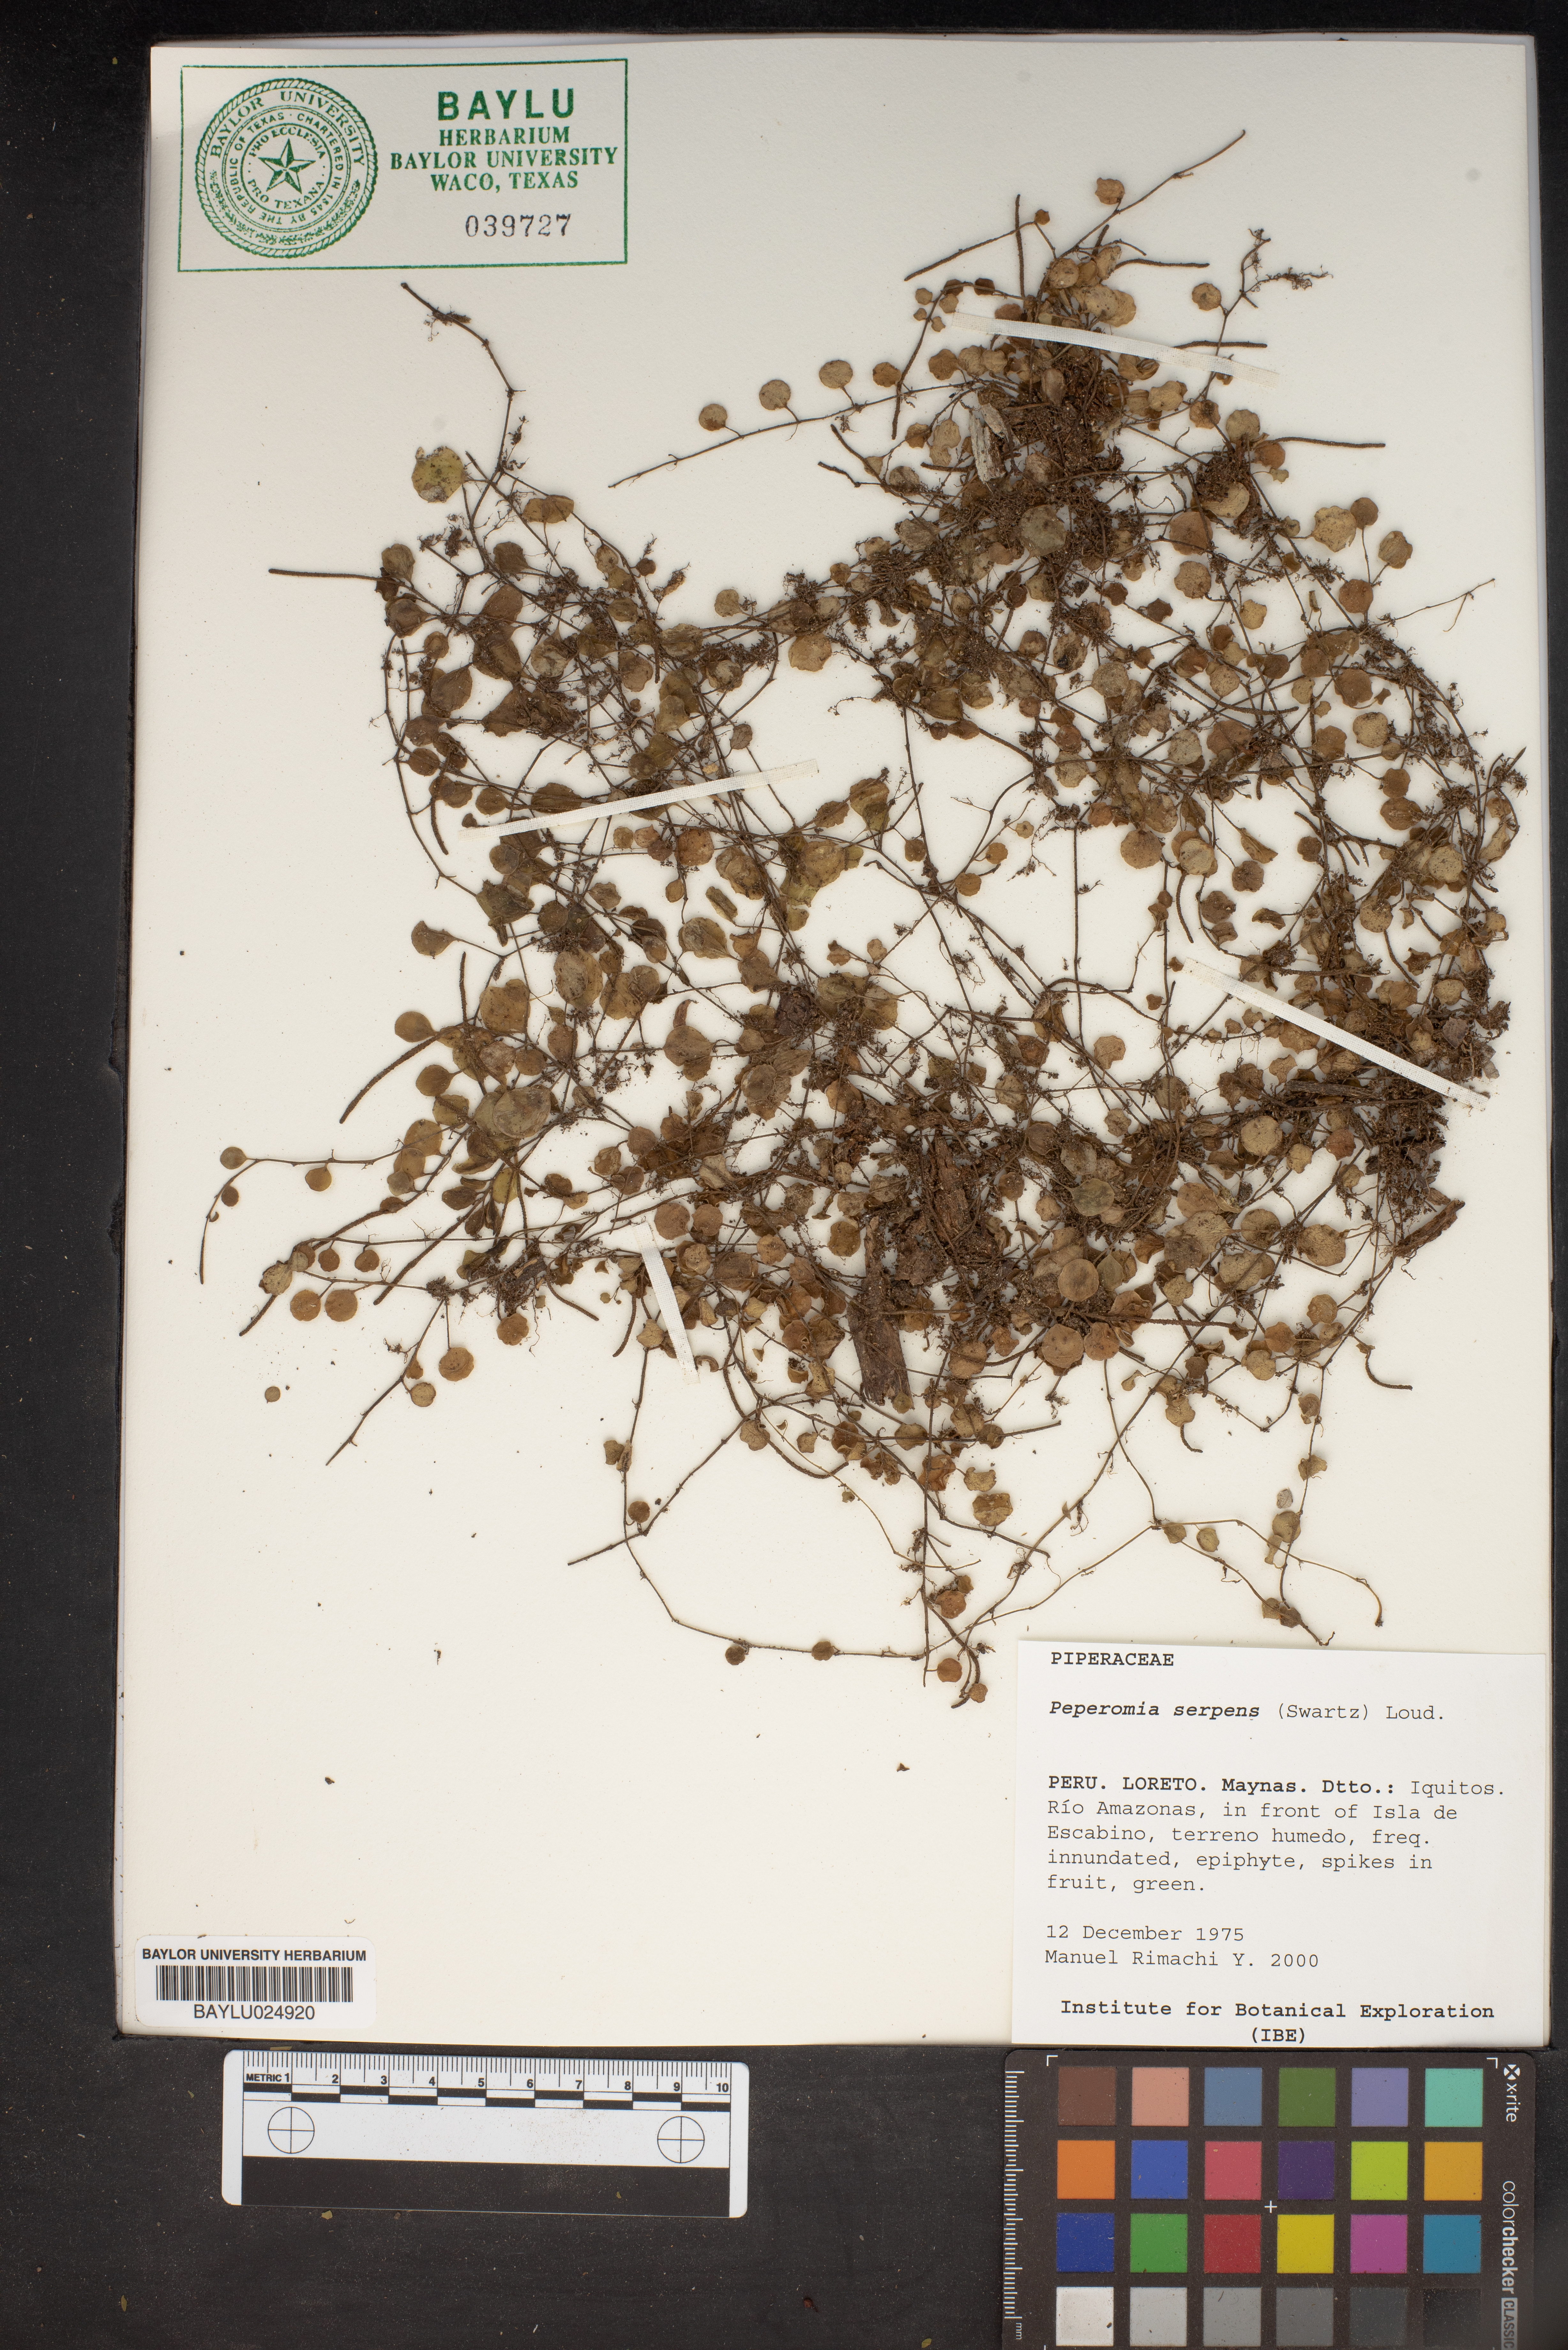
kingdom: Plantae
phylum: Tracheophyta
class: Magnoliopsida
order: Piperales
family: Piperaceae
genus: Peperomia
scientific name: Peperomia serpens
